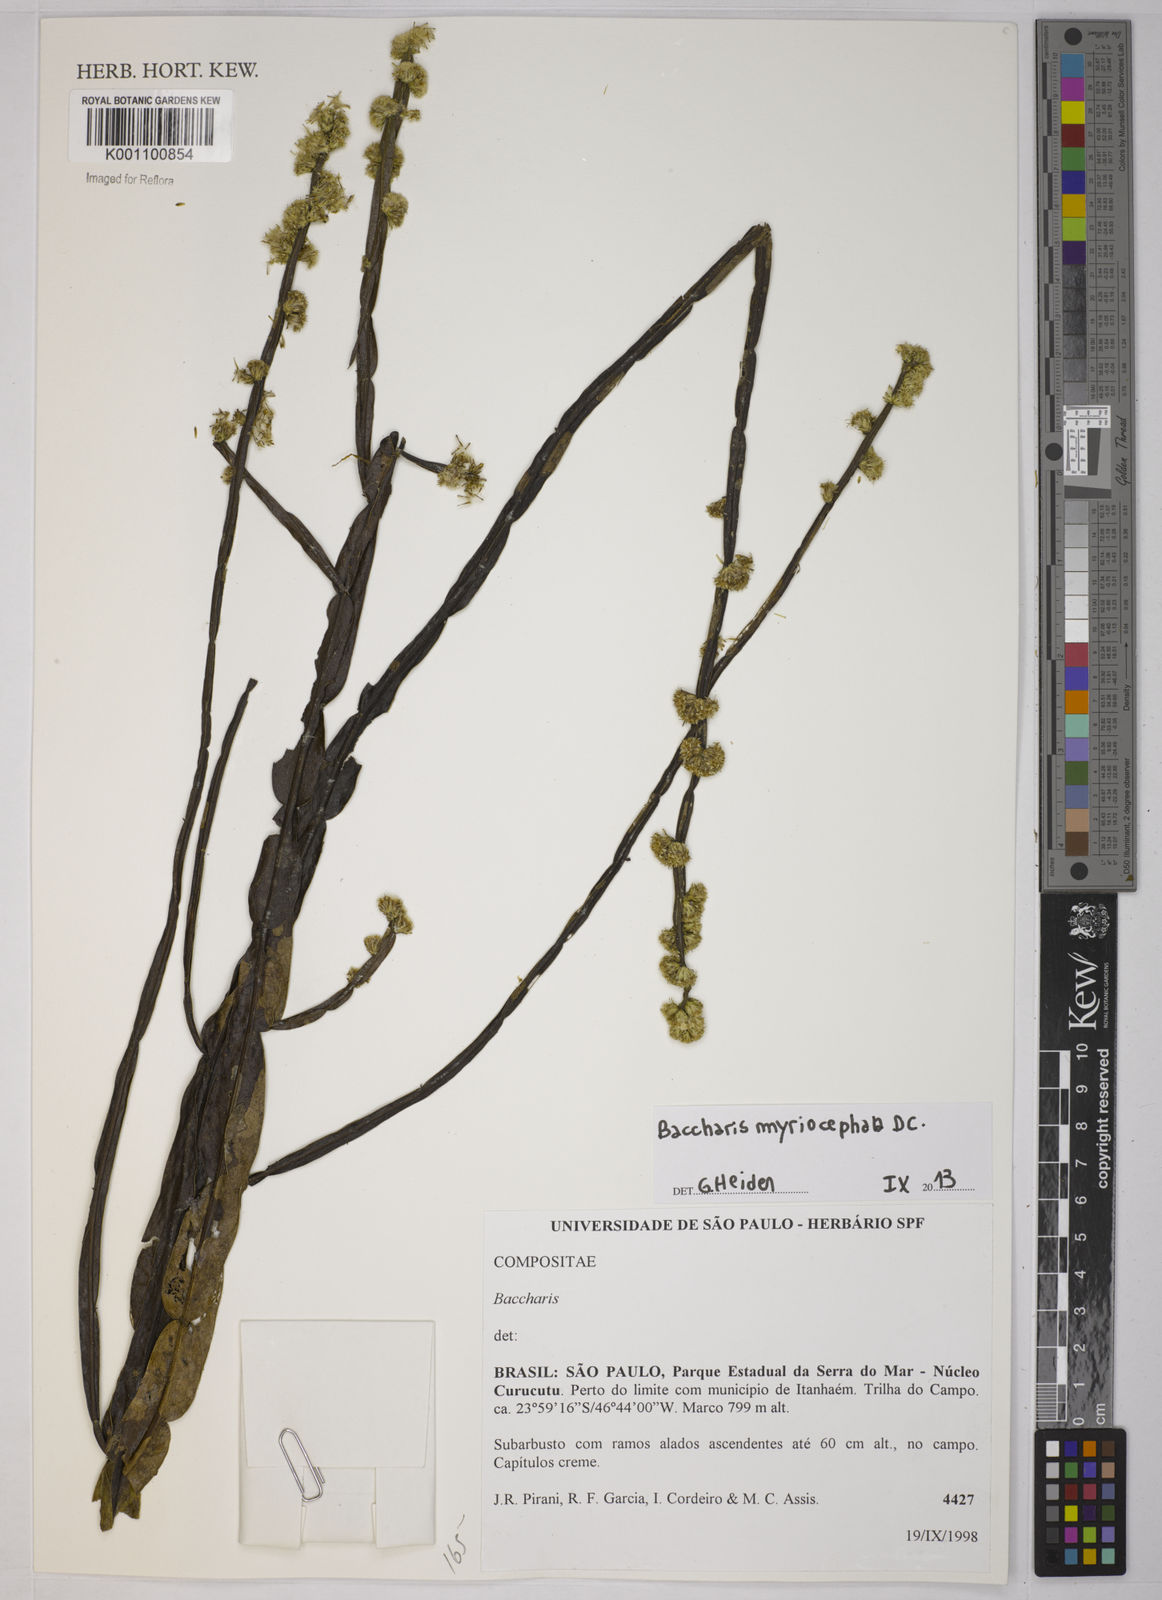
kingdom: Plantae
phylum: Tracheophyta
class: Magnoliopsida
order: Asterales
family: Asteraceae
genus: Baccharis
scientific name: Baccharis myriocephala
